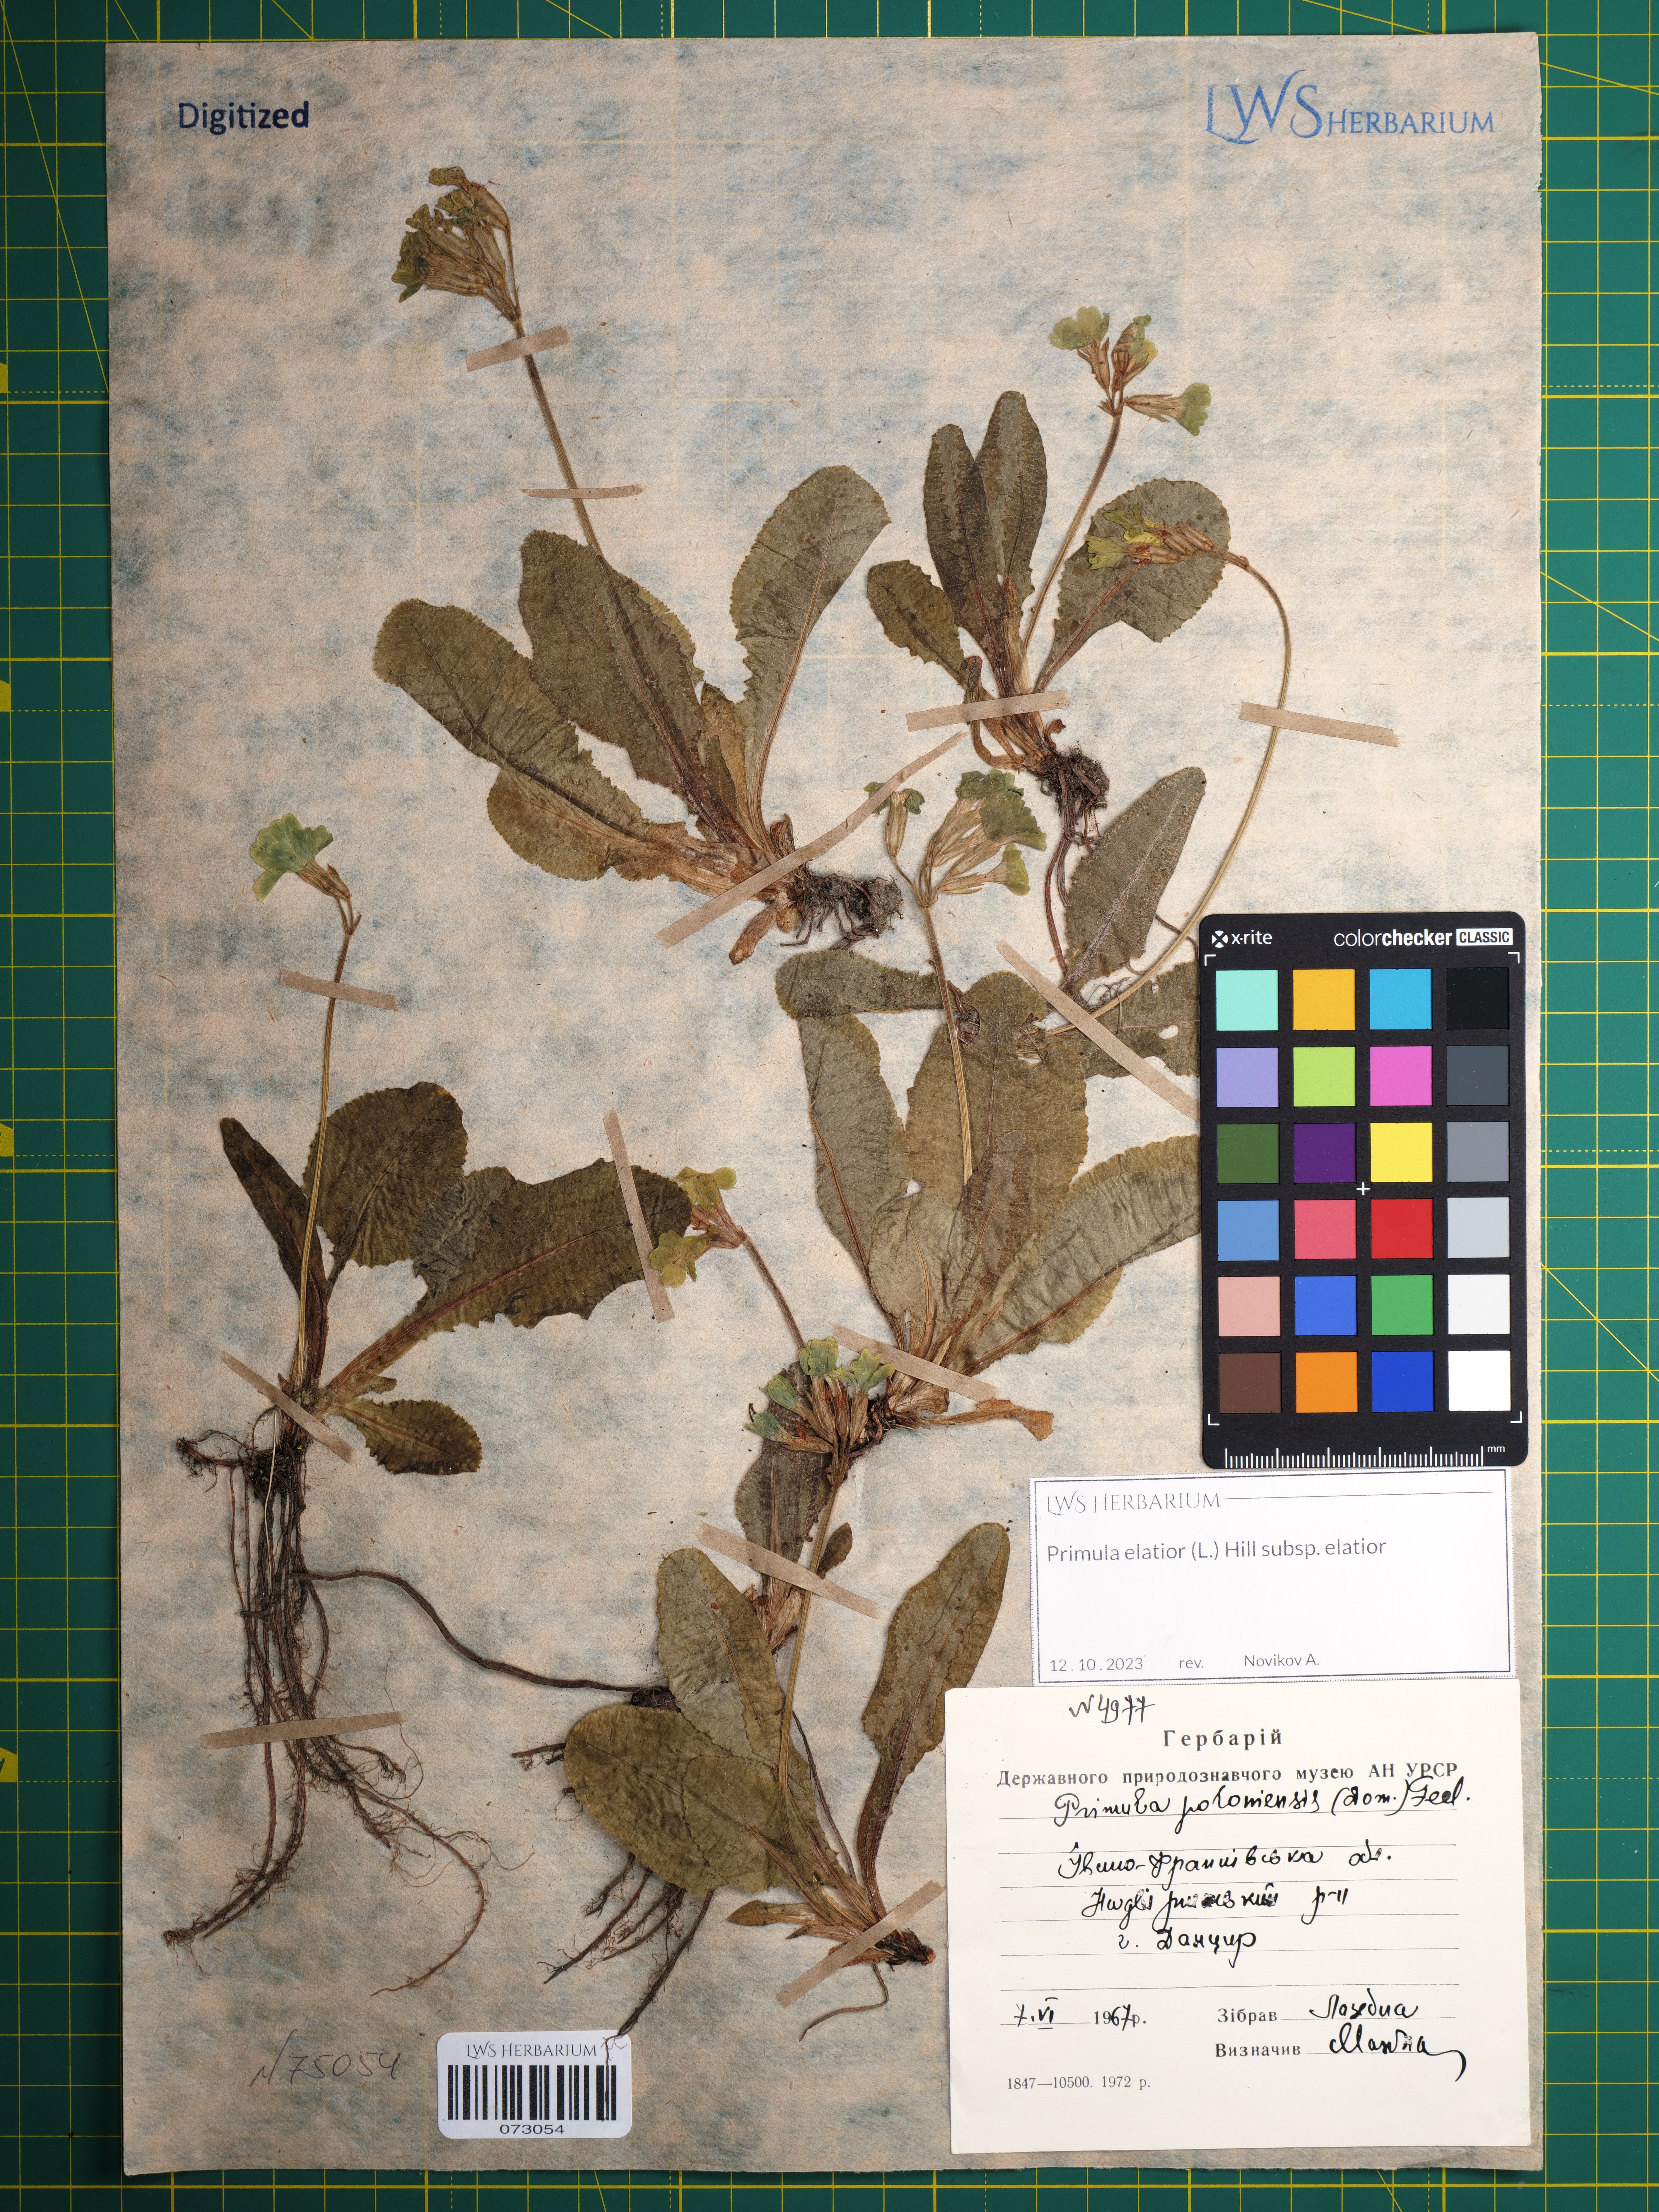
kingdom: Plantae
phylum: Tracheophyta
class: Magnoliopsida
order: Ericales
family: Primulaceae
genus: Primula
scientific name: Primula elatior
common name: Oxlip
